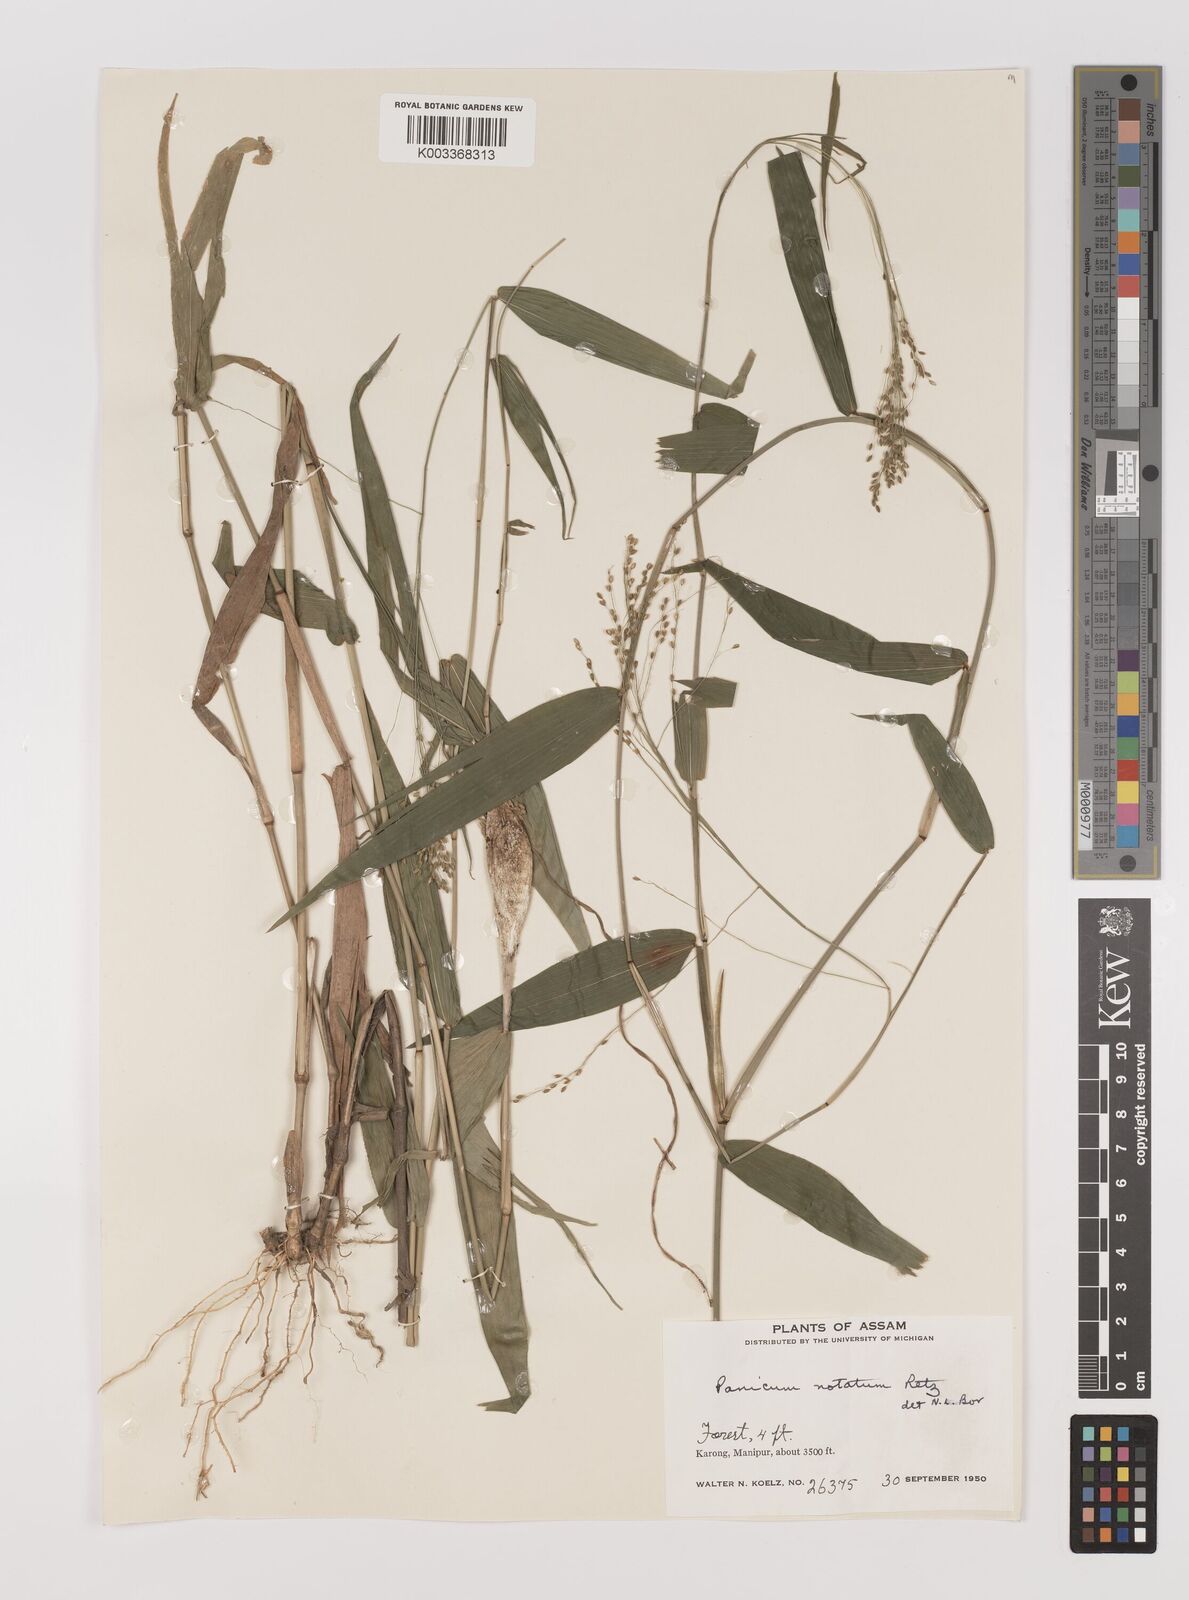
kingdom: Plantae
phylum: Tracheophyta
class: Liliopsida
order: Poales
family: Poaceae
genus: Panicum
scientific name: Panicum notatum
